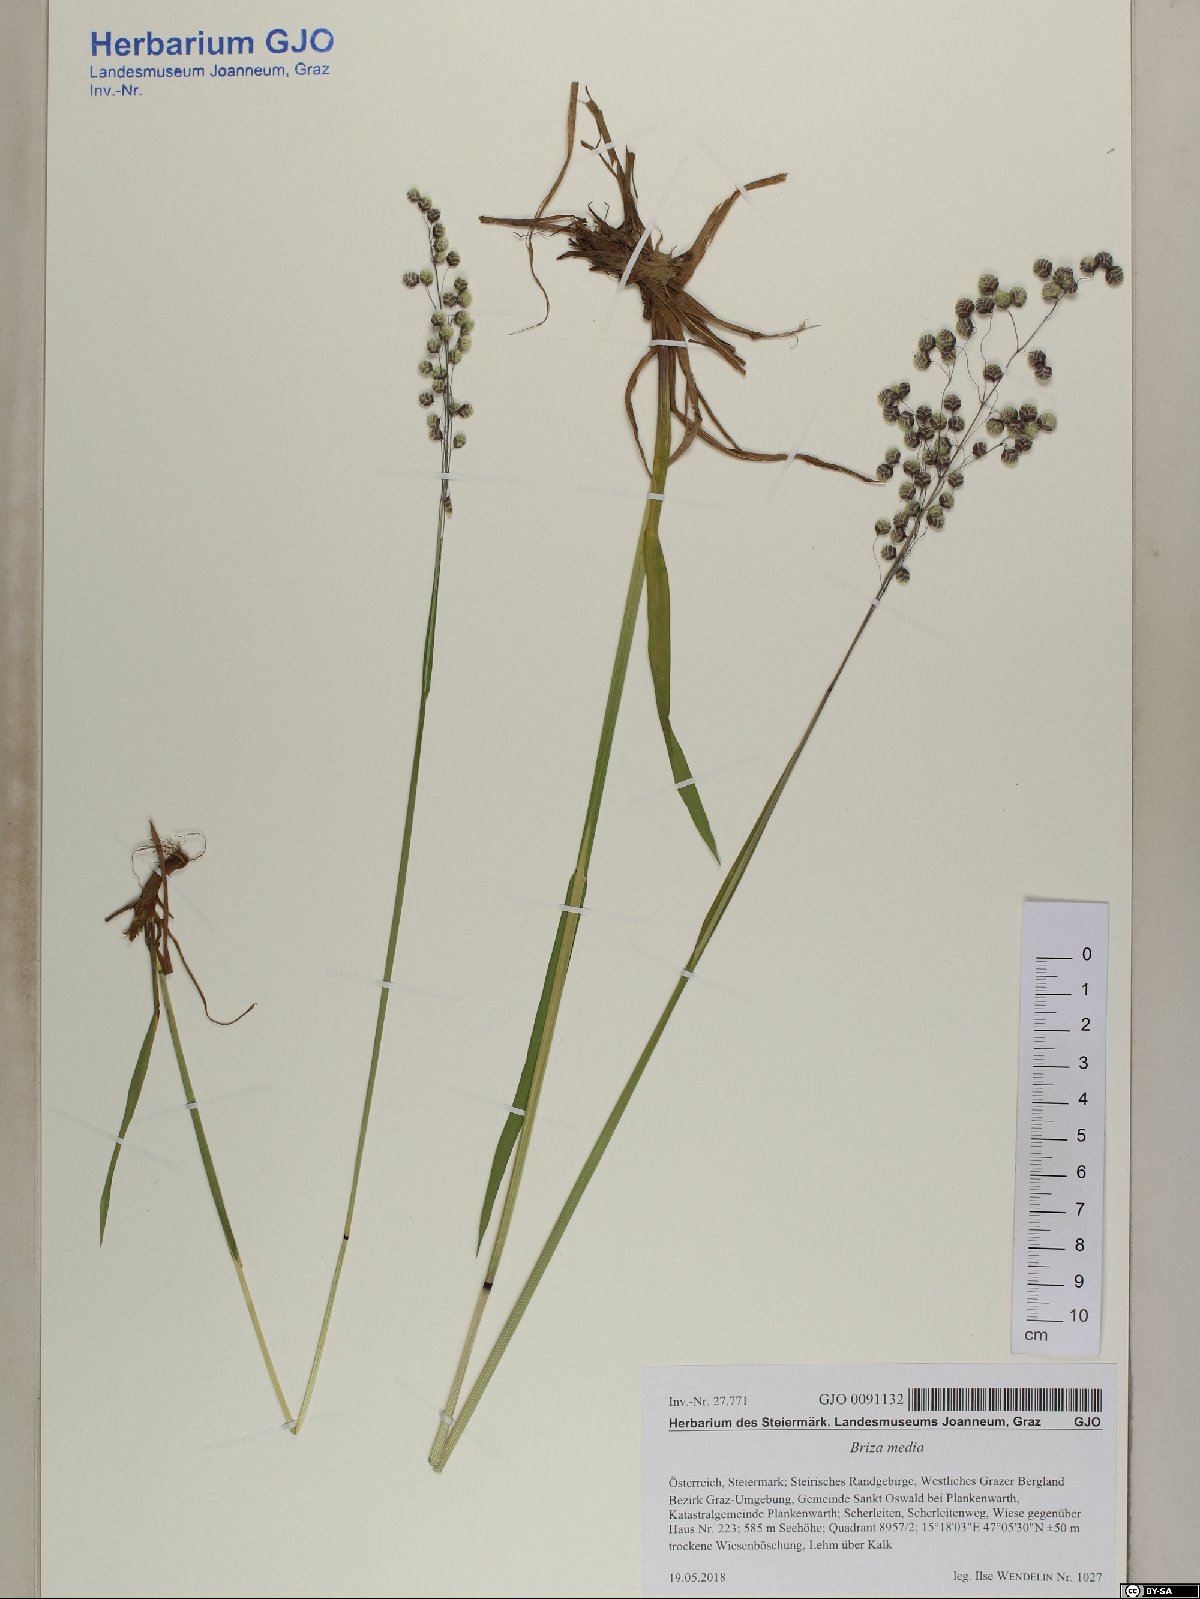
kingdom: Plantae
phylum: Tracheophyta
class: Liliopsida
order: Poales
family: Poaceae
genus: Briza
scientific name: Briza media
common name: Quaking grass
